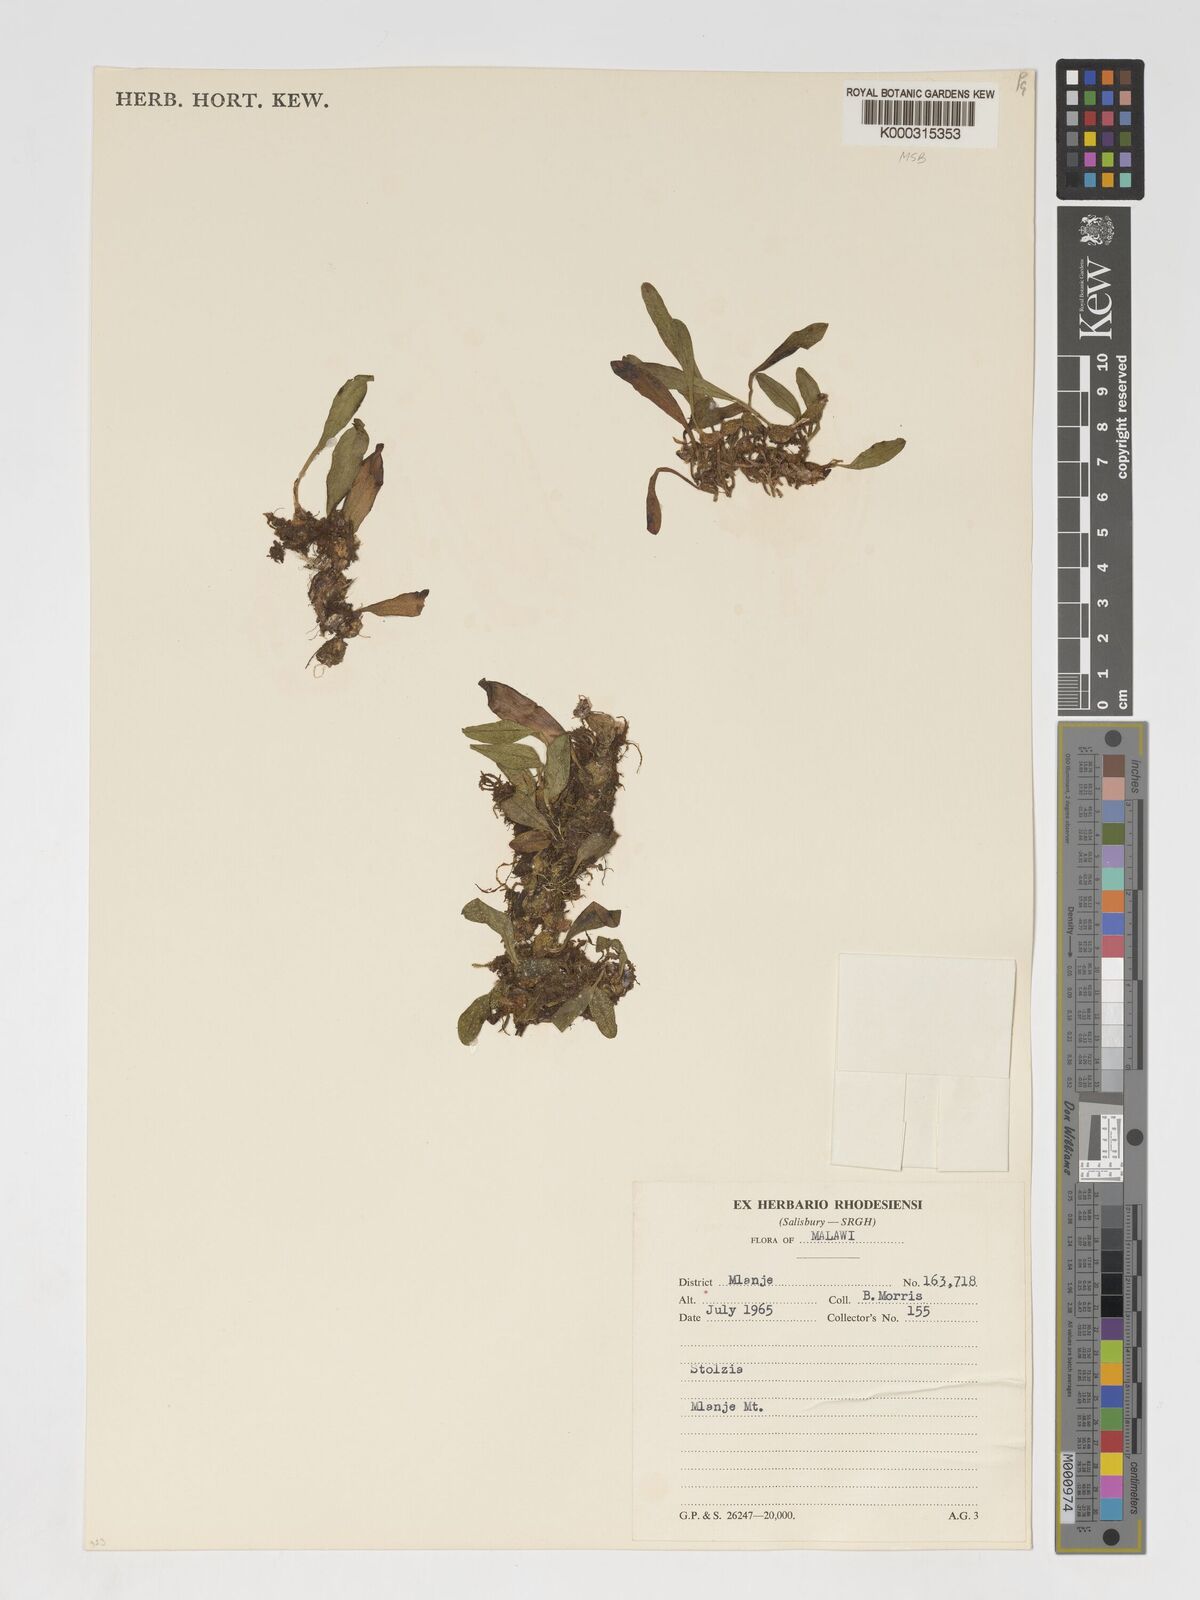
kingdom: Plantae
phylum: Tracheophyta
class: Liliopsida
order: Asparagales
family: Orchidaceae
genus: Porpax
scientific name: Porpax compacta
